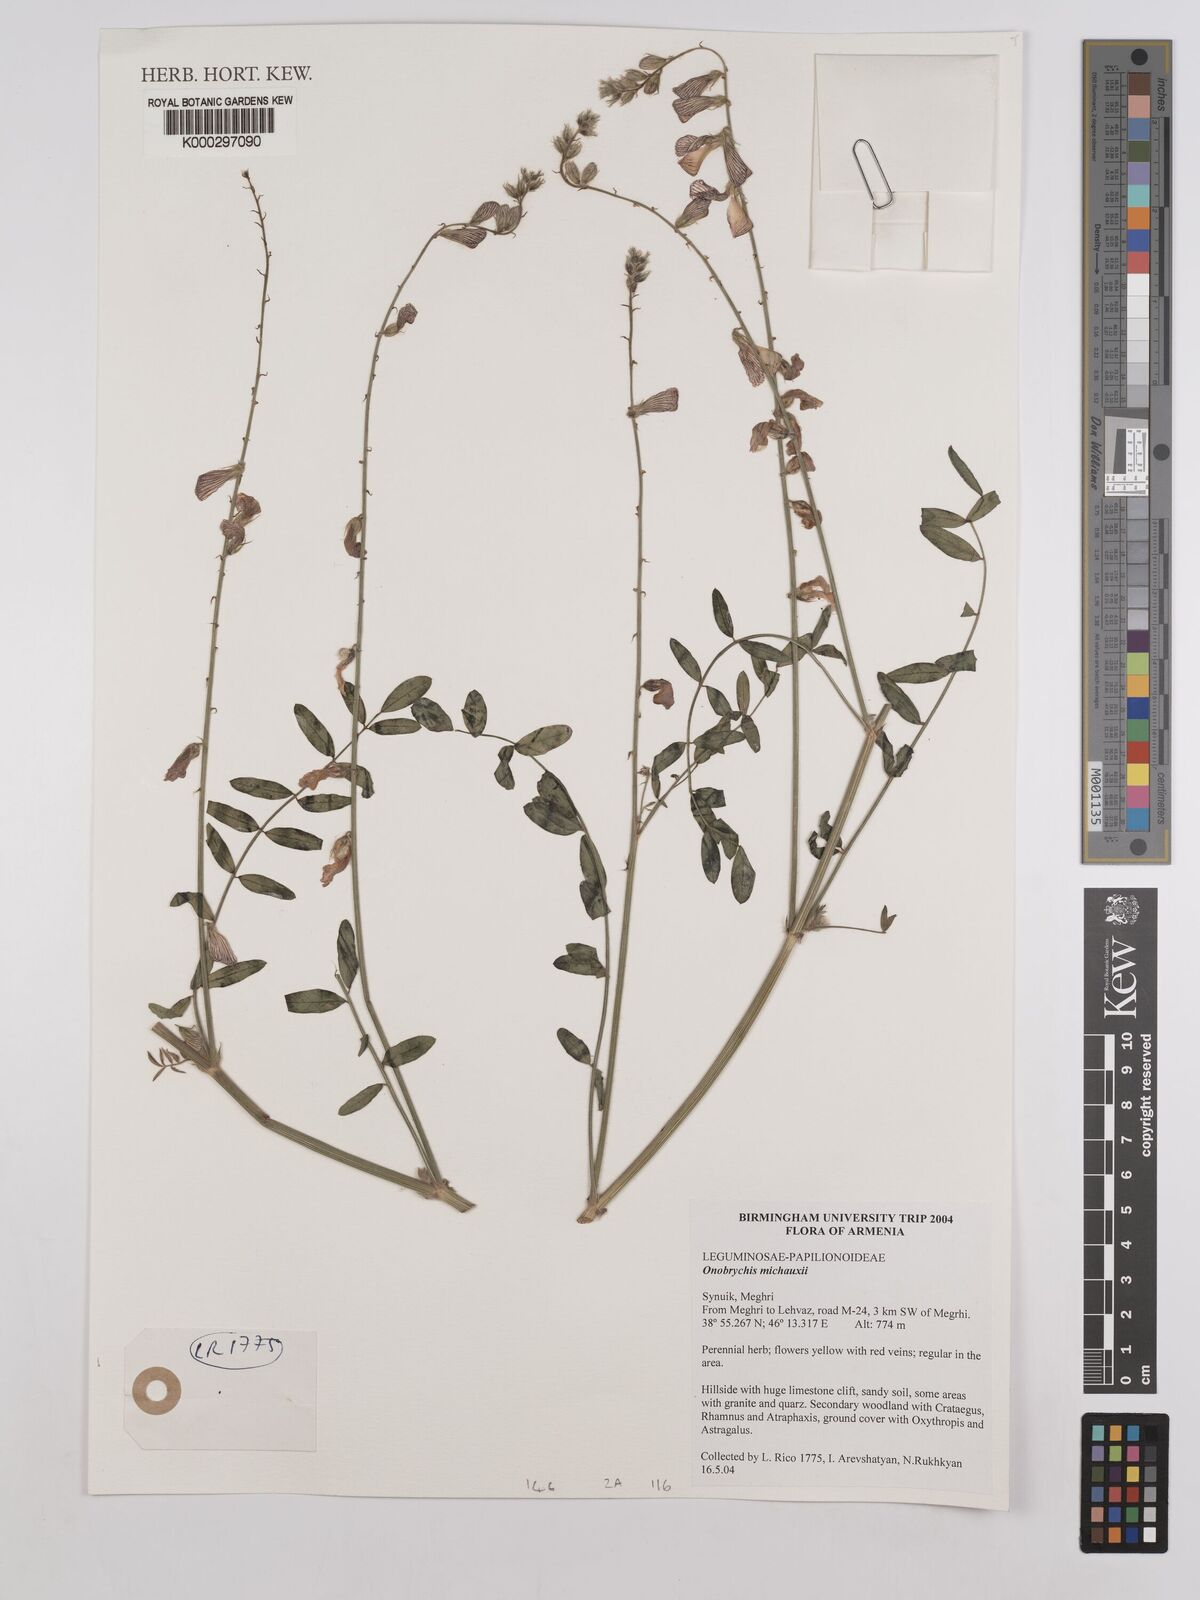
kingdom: Plantae
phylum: Tracheophyta
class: Magnoliopsida
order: Fabales
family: Fabaceae
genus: Onobrychis
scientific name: Onobrychis michauxii
